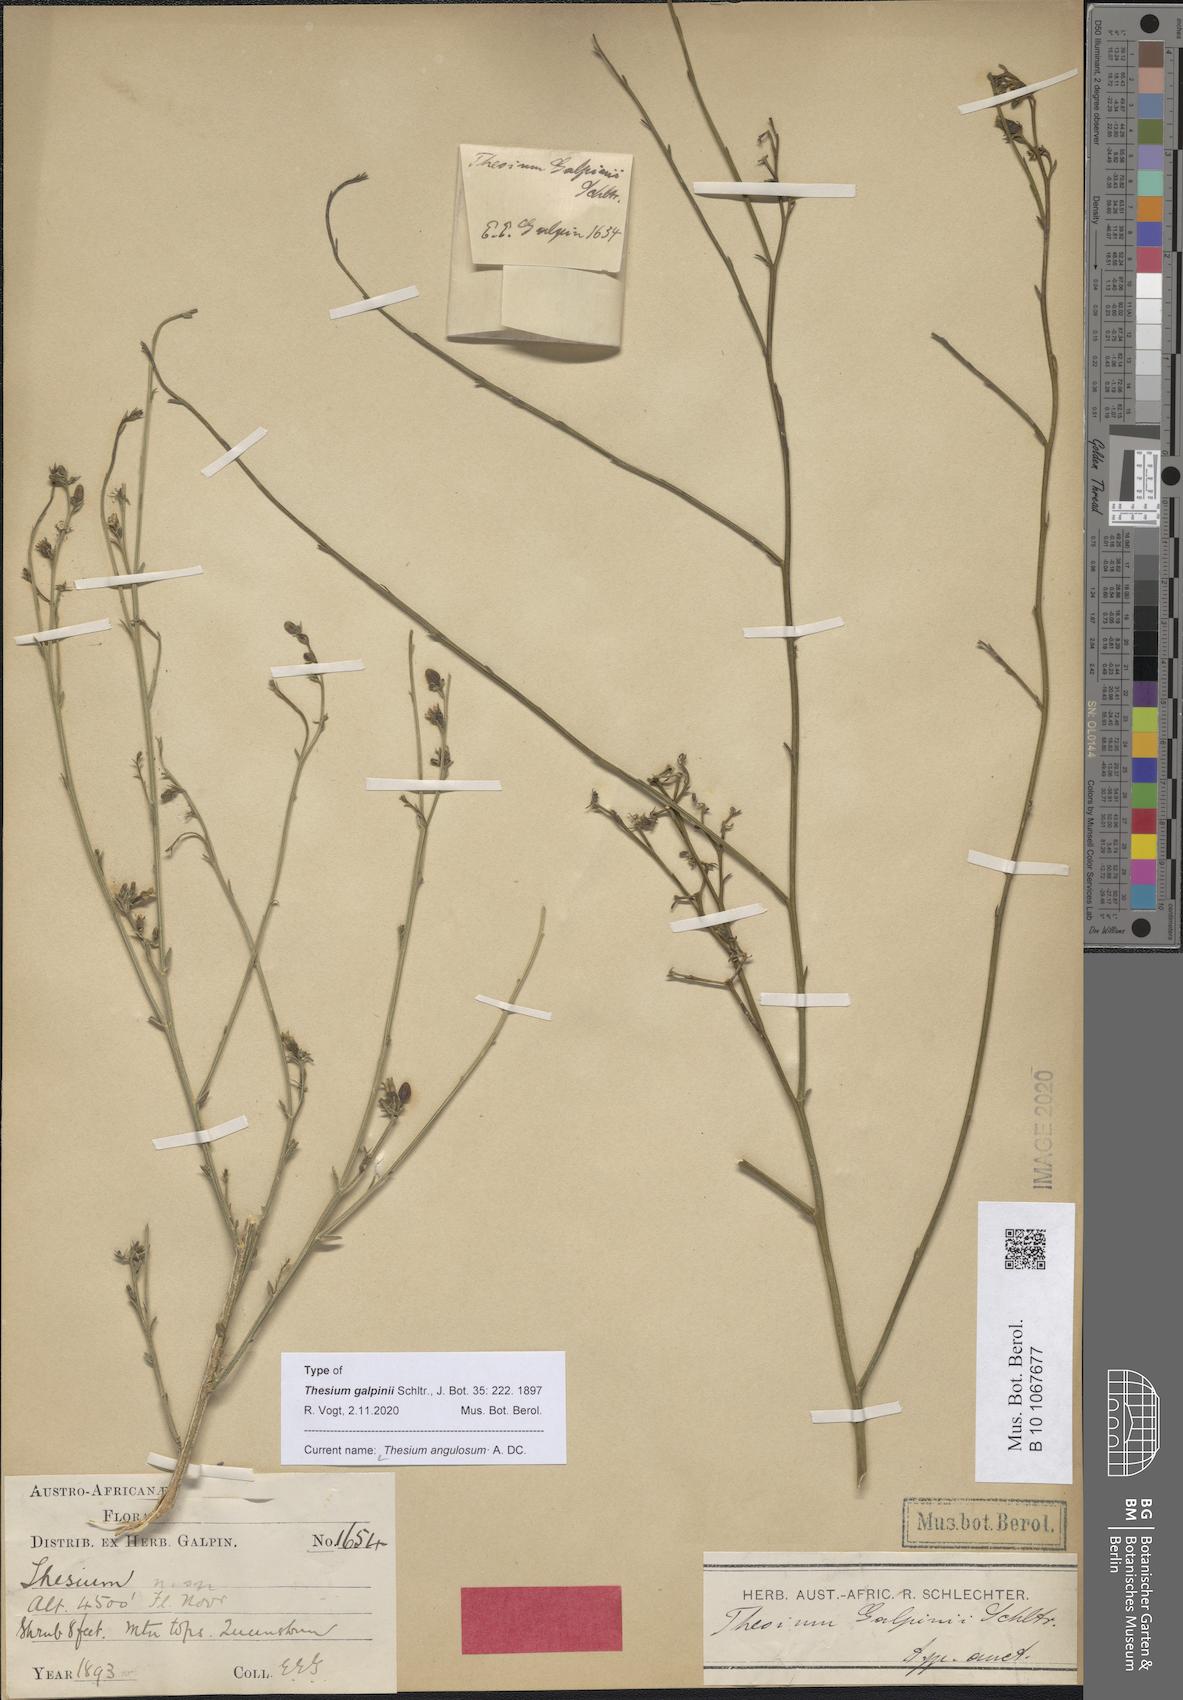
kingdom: Plantae
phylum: Tracheophyta
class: Magnoliopsida
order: Santalales
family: Thesiaceae
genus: Thesium
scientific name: Thesium angulosum
